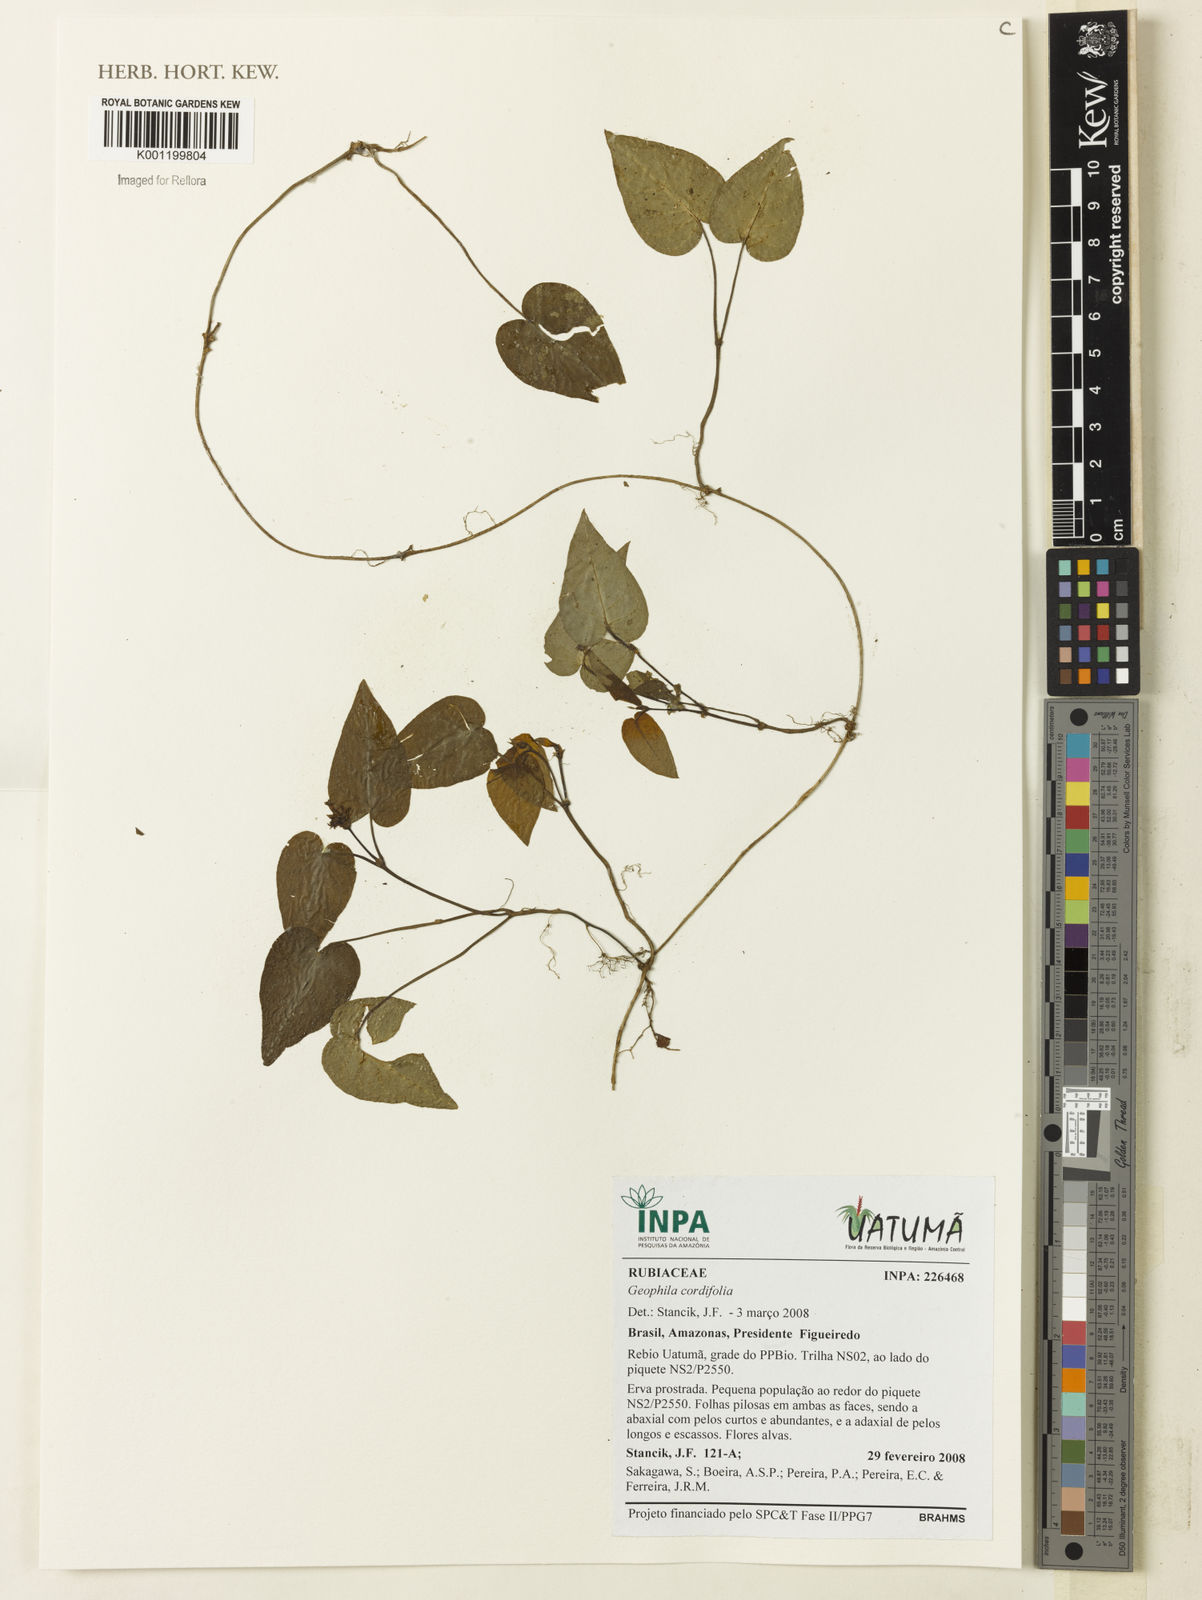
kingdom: Plantae
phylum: Tracheophyta
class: Magnoliopsida
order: Gentianales
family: Rubiaceae
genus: Geophila
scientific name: Geophila cordifolia
